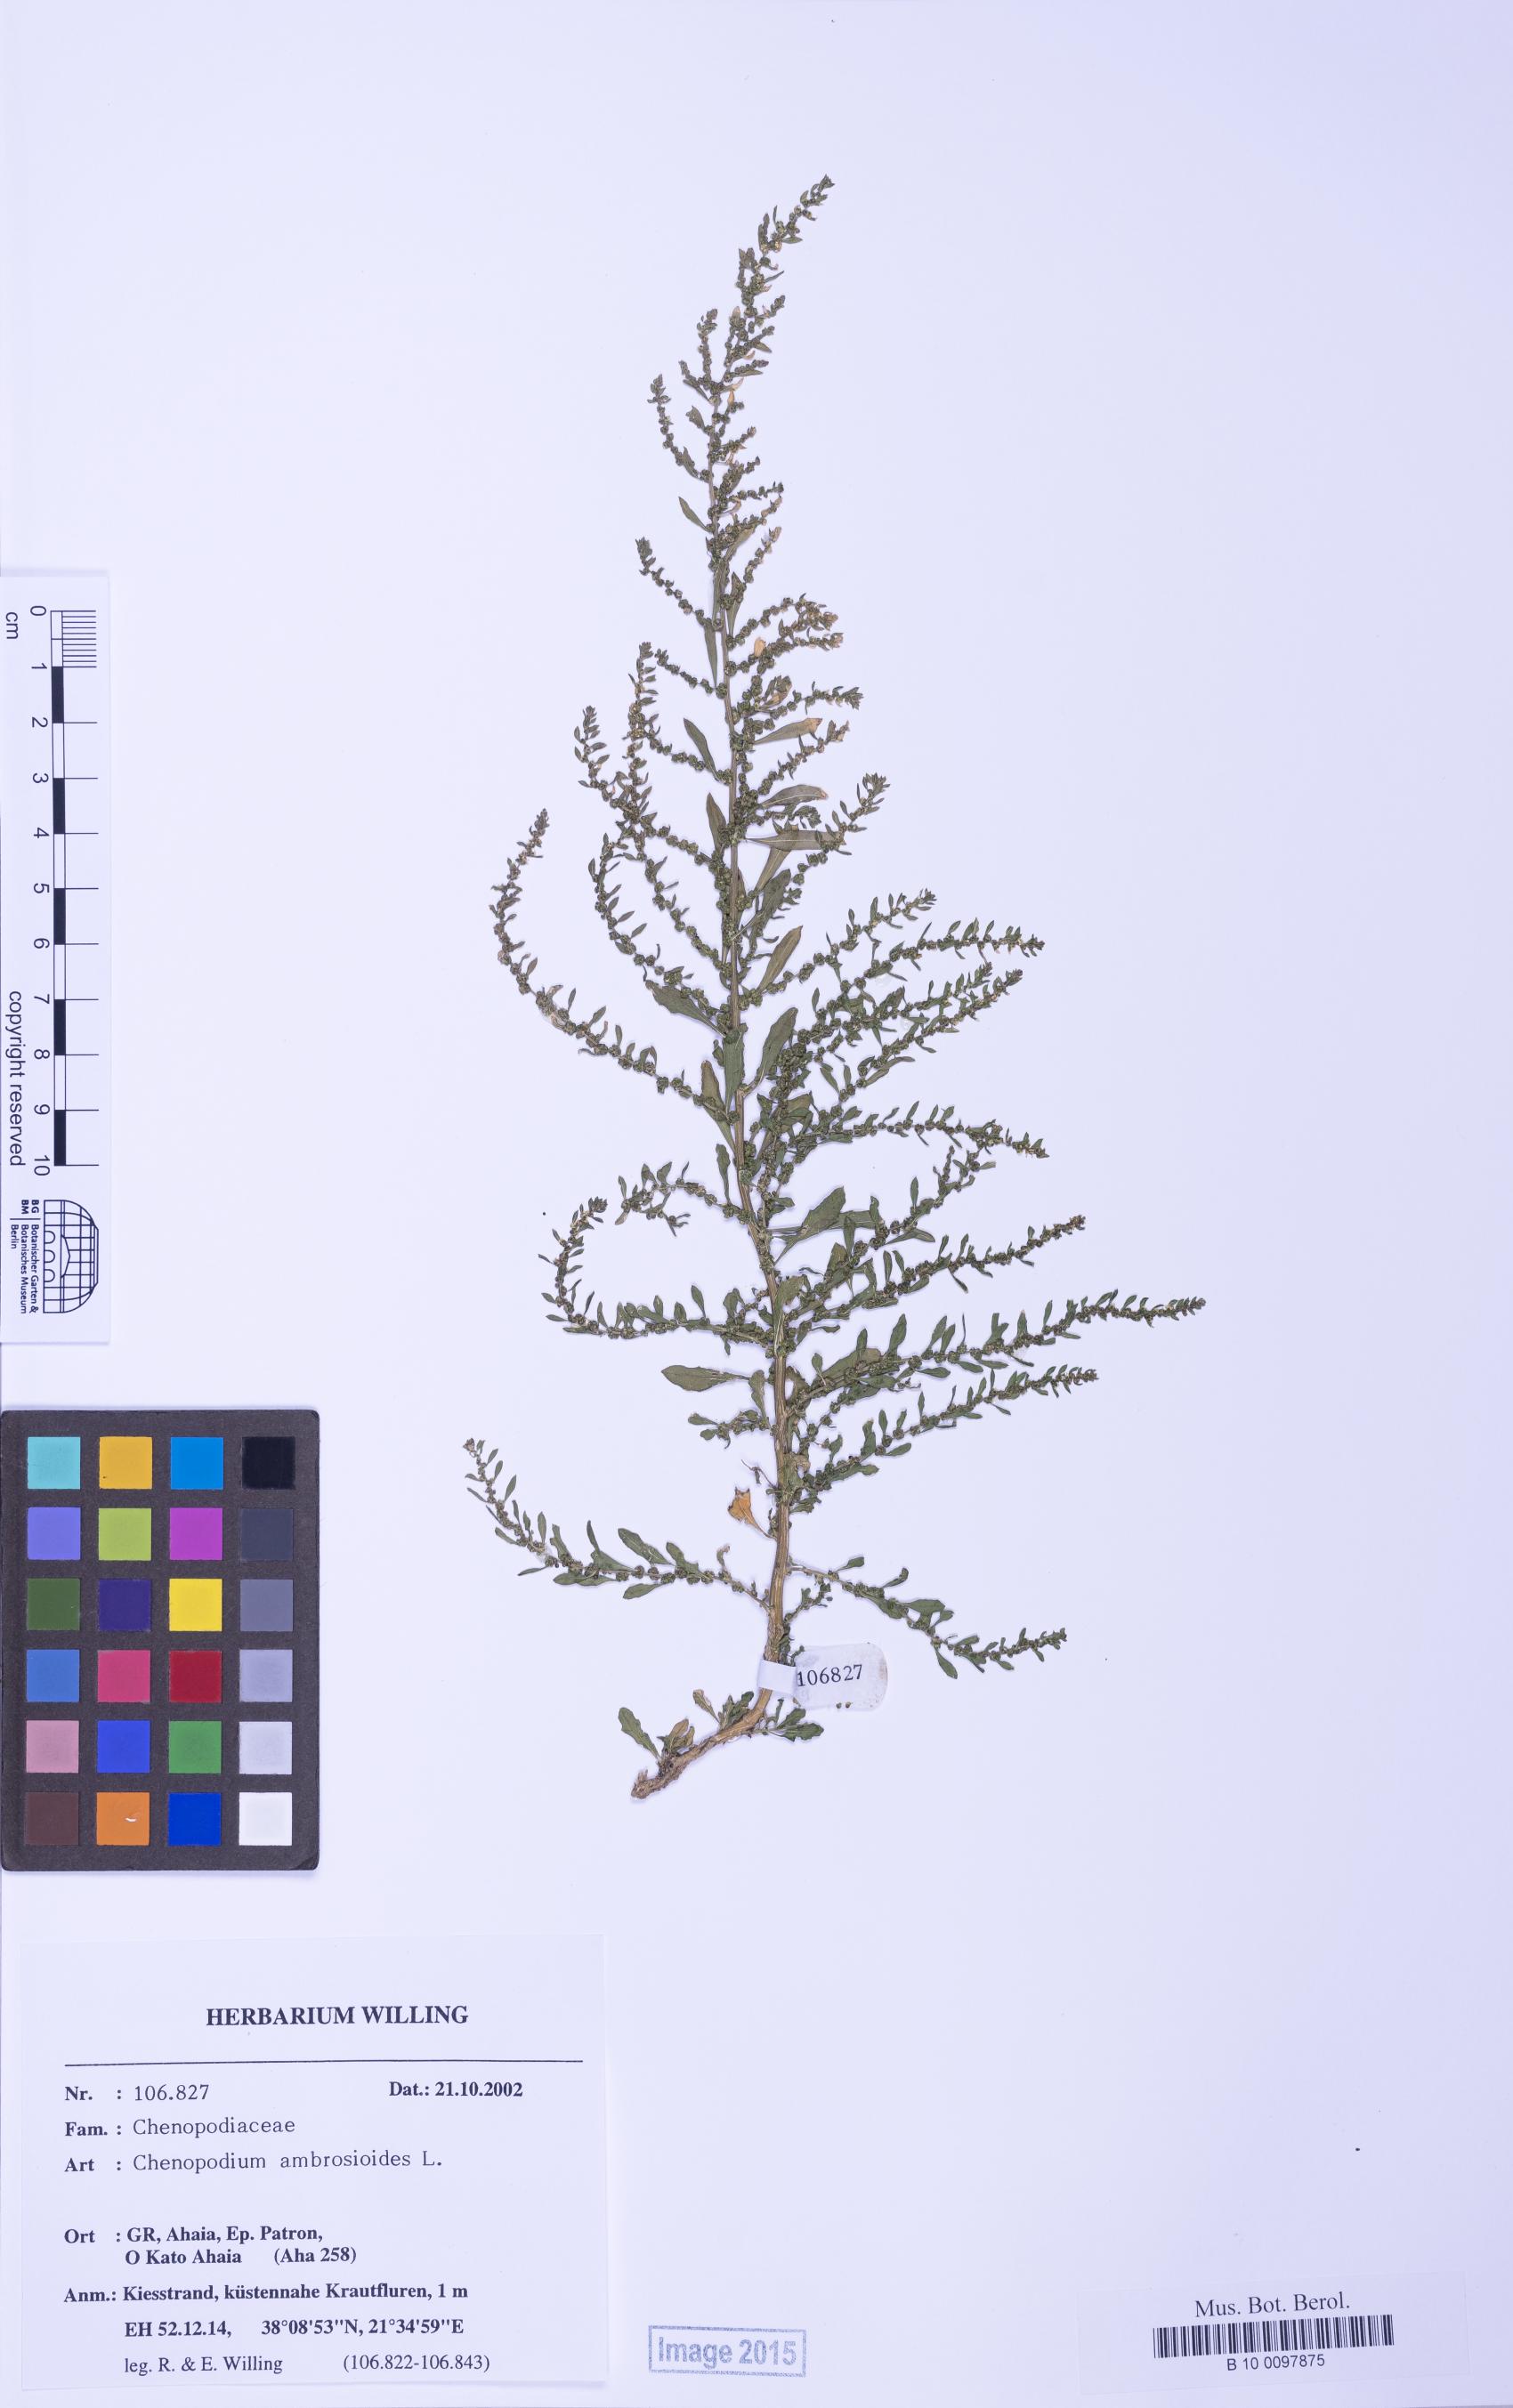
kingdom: Plantae
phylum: Tracheophyta
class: Magnoliopsida
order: Caryophyllales
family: Amaranthaceae
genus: Dysphania
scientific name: Dysphania ambrosioides
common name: Wormseed
